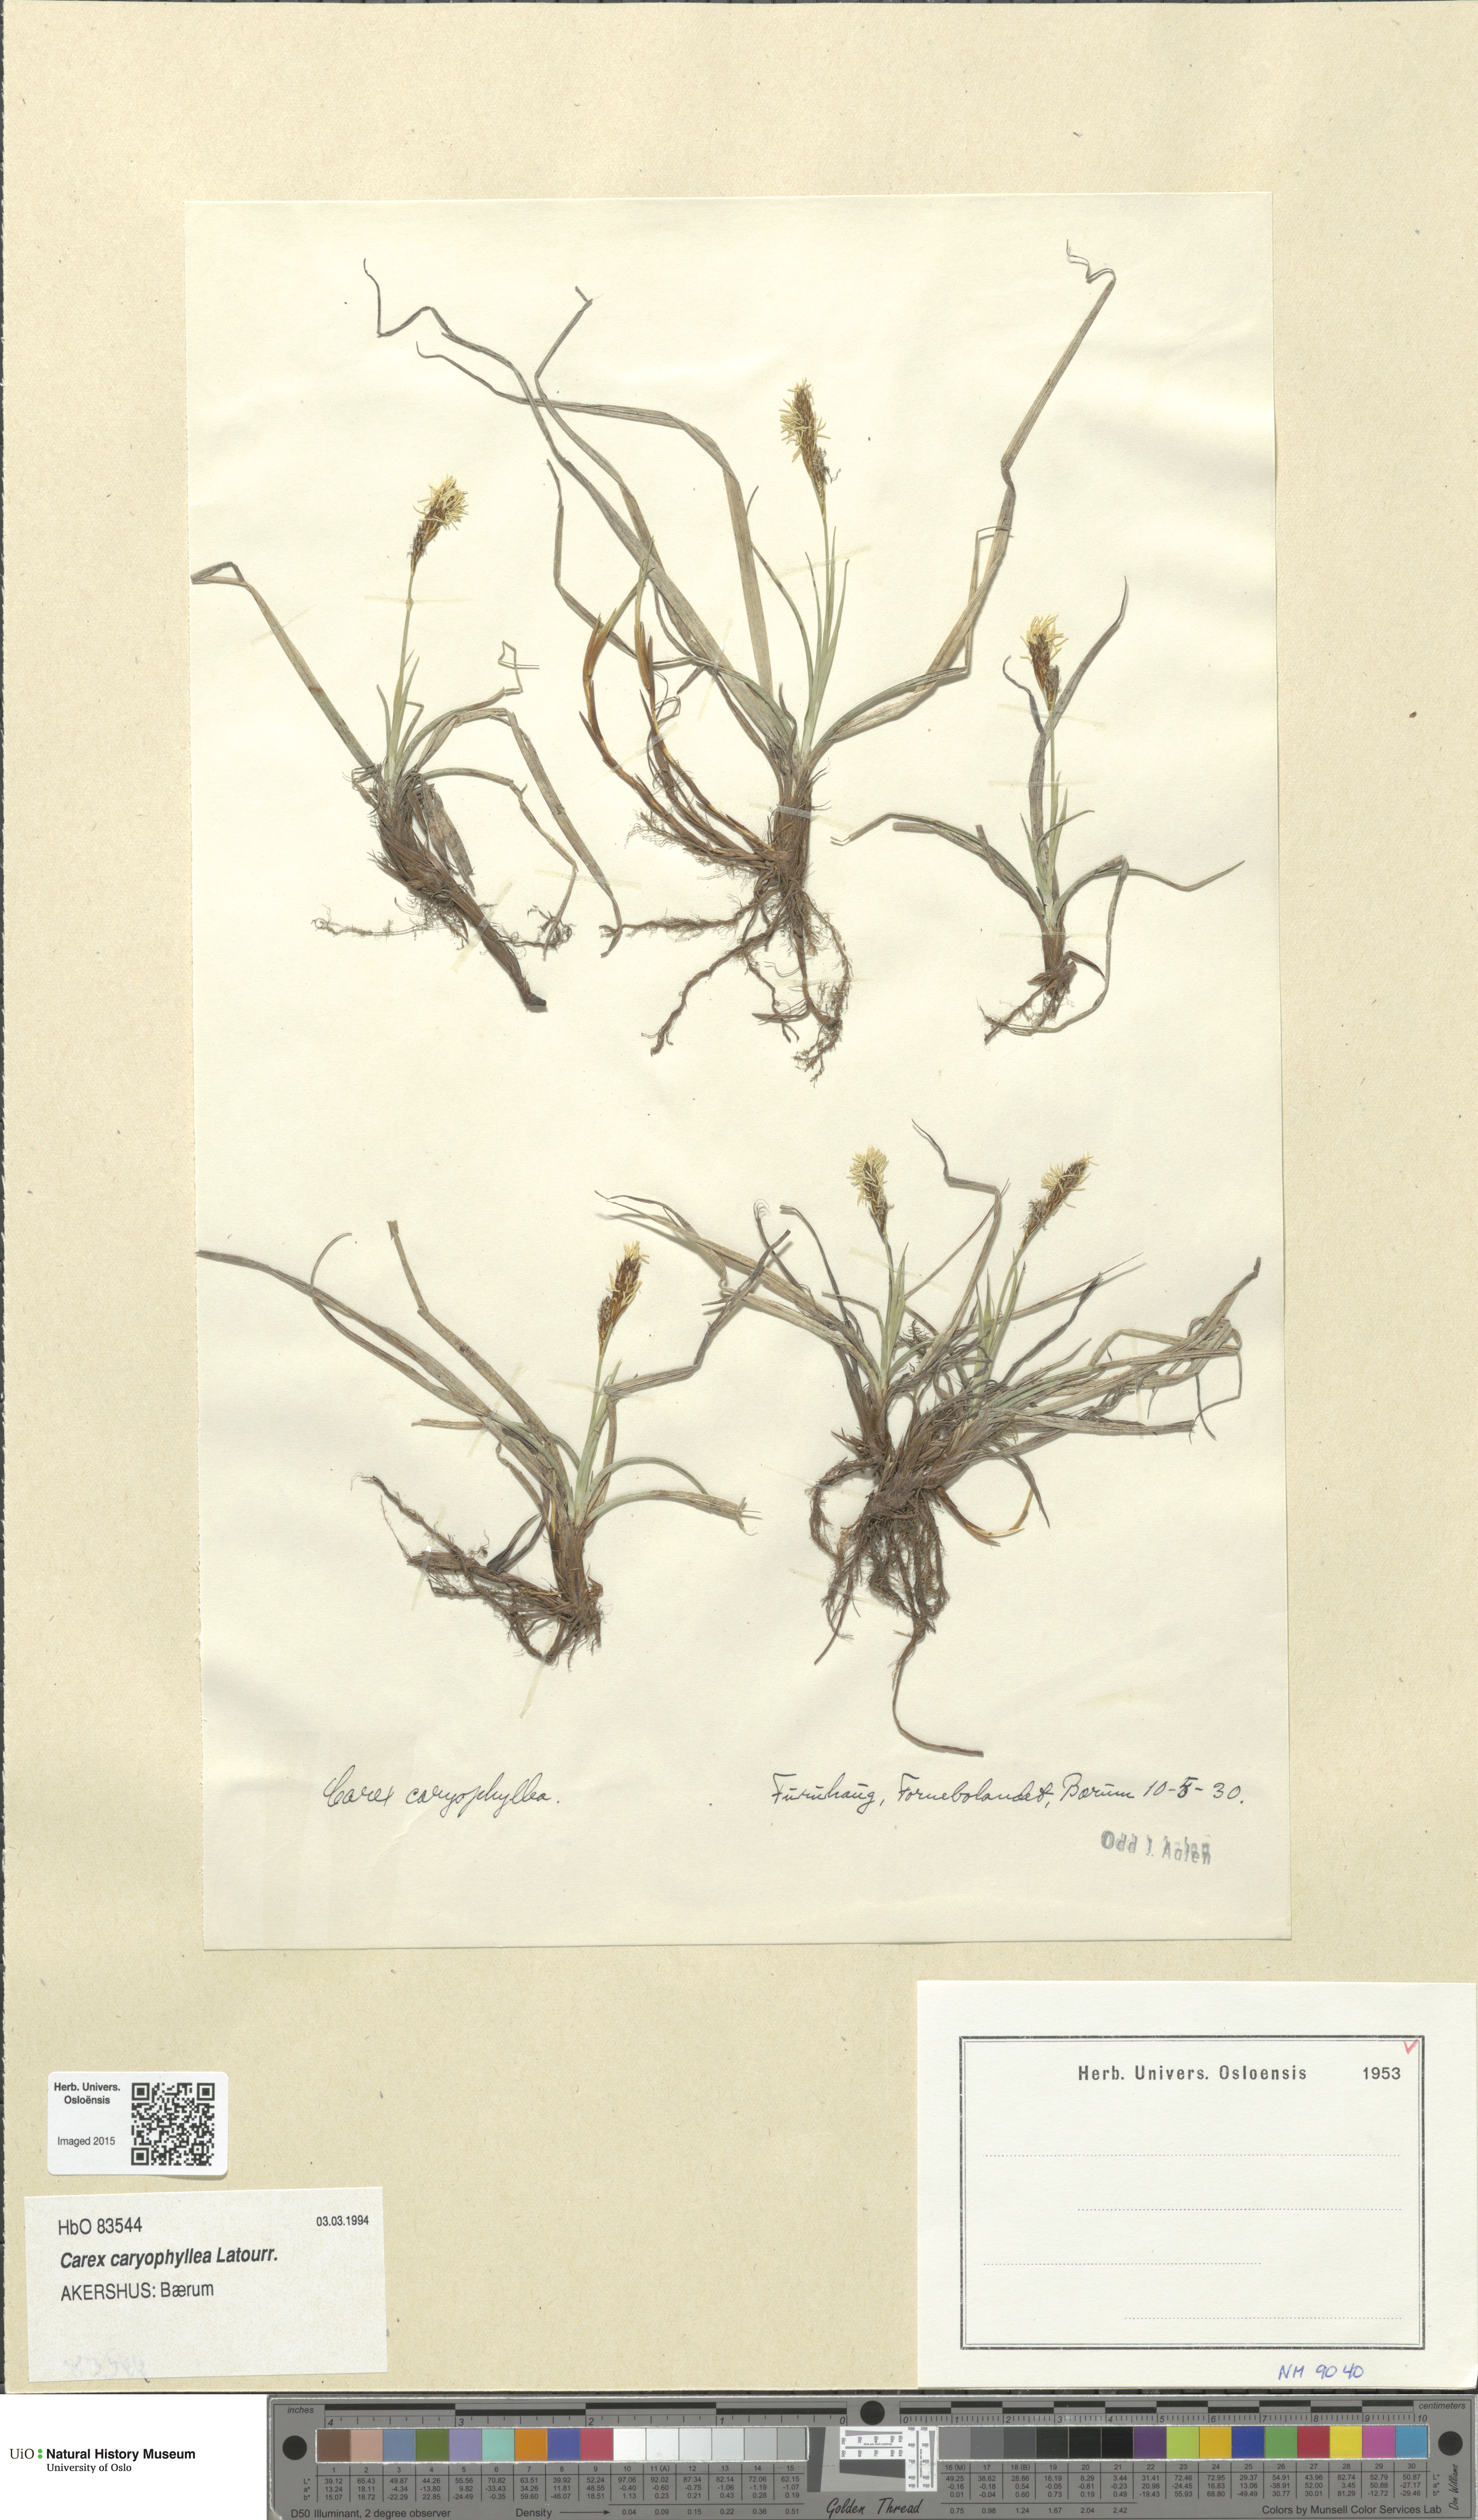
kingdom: Plantae
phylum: Tracheophyta
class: Liliopsida
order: Poales
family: Cyperaceae
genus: Carex
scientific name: Carex caryophyllea
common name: Spring sedge
